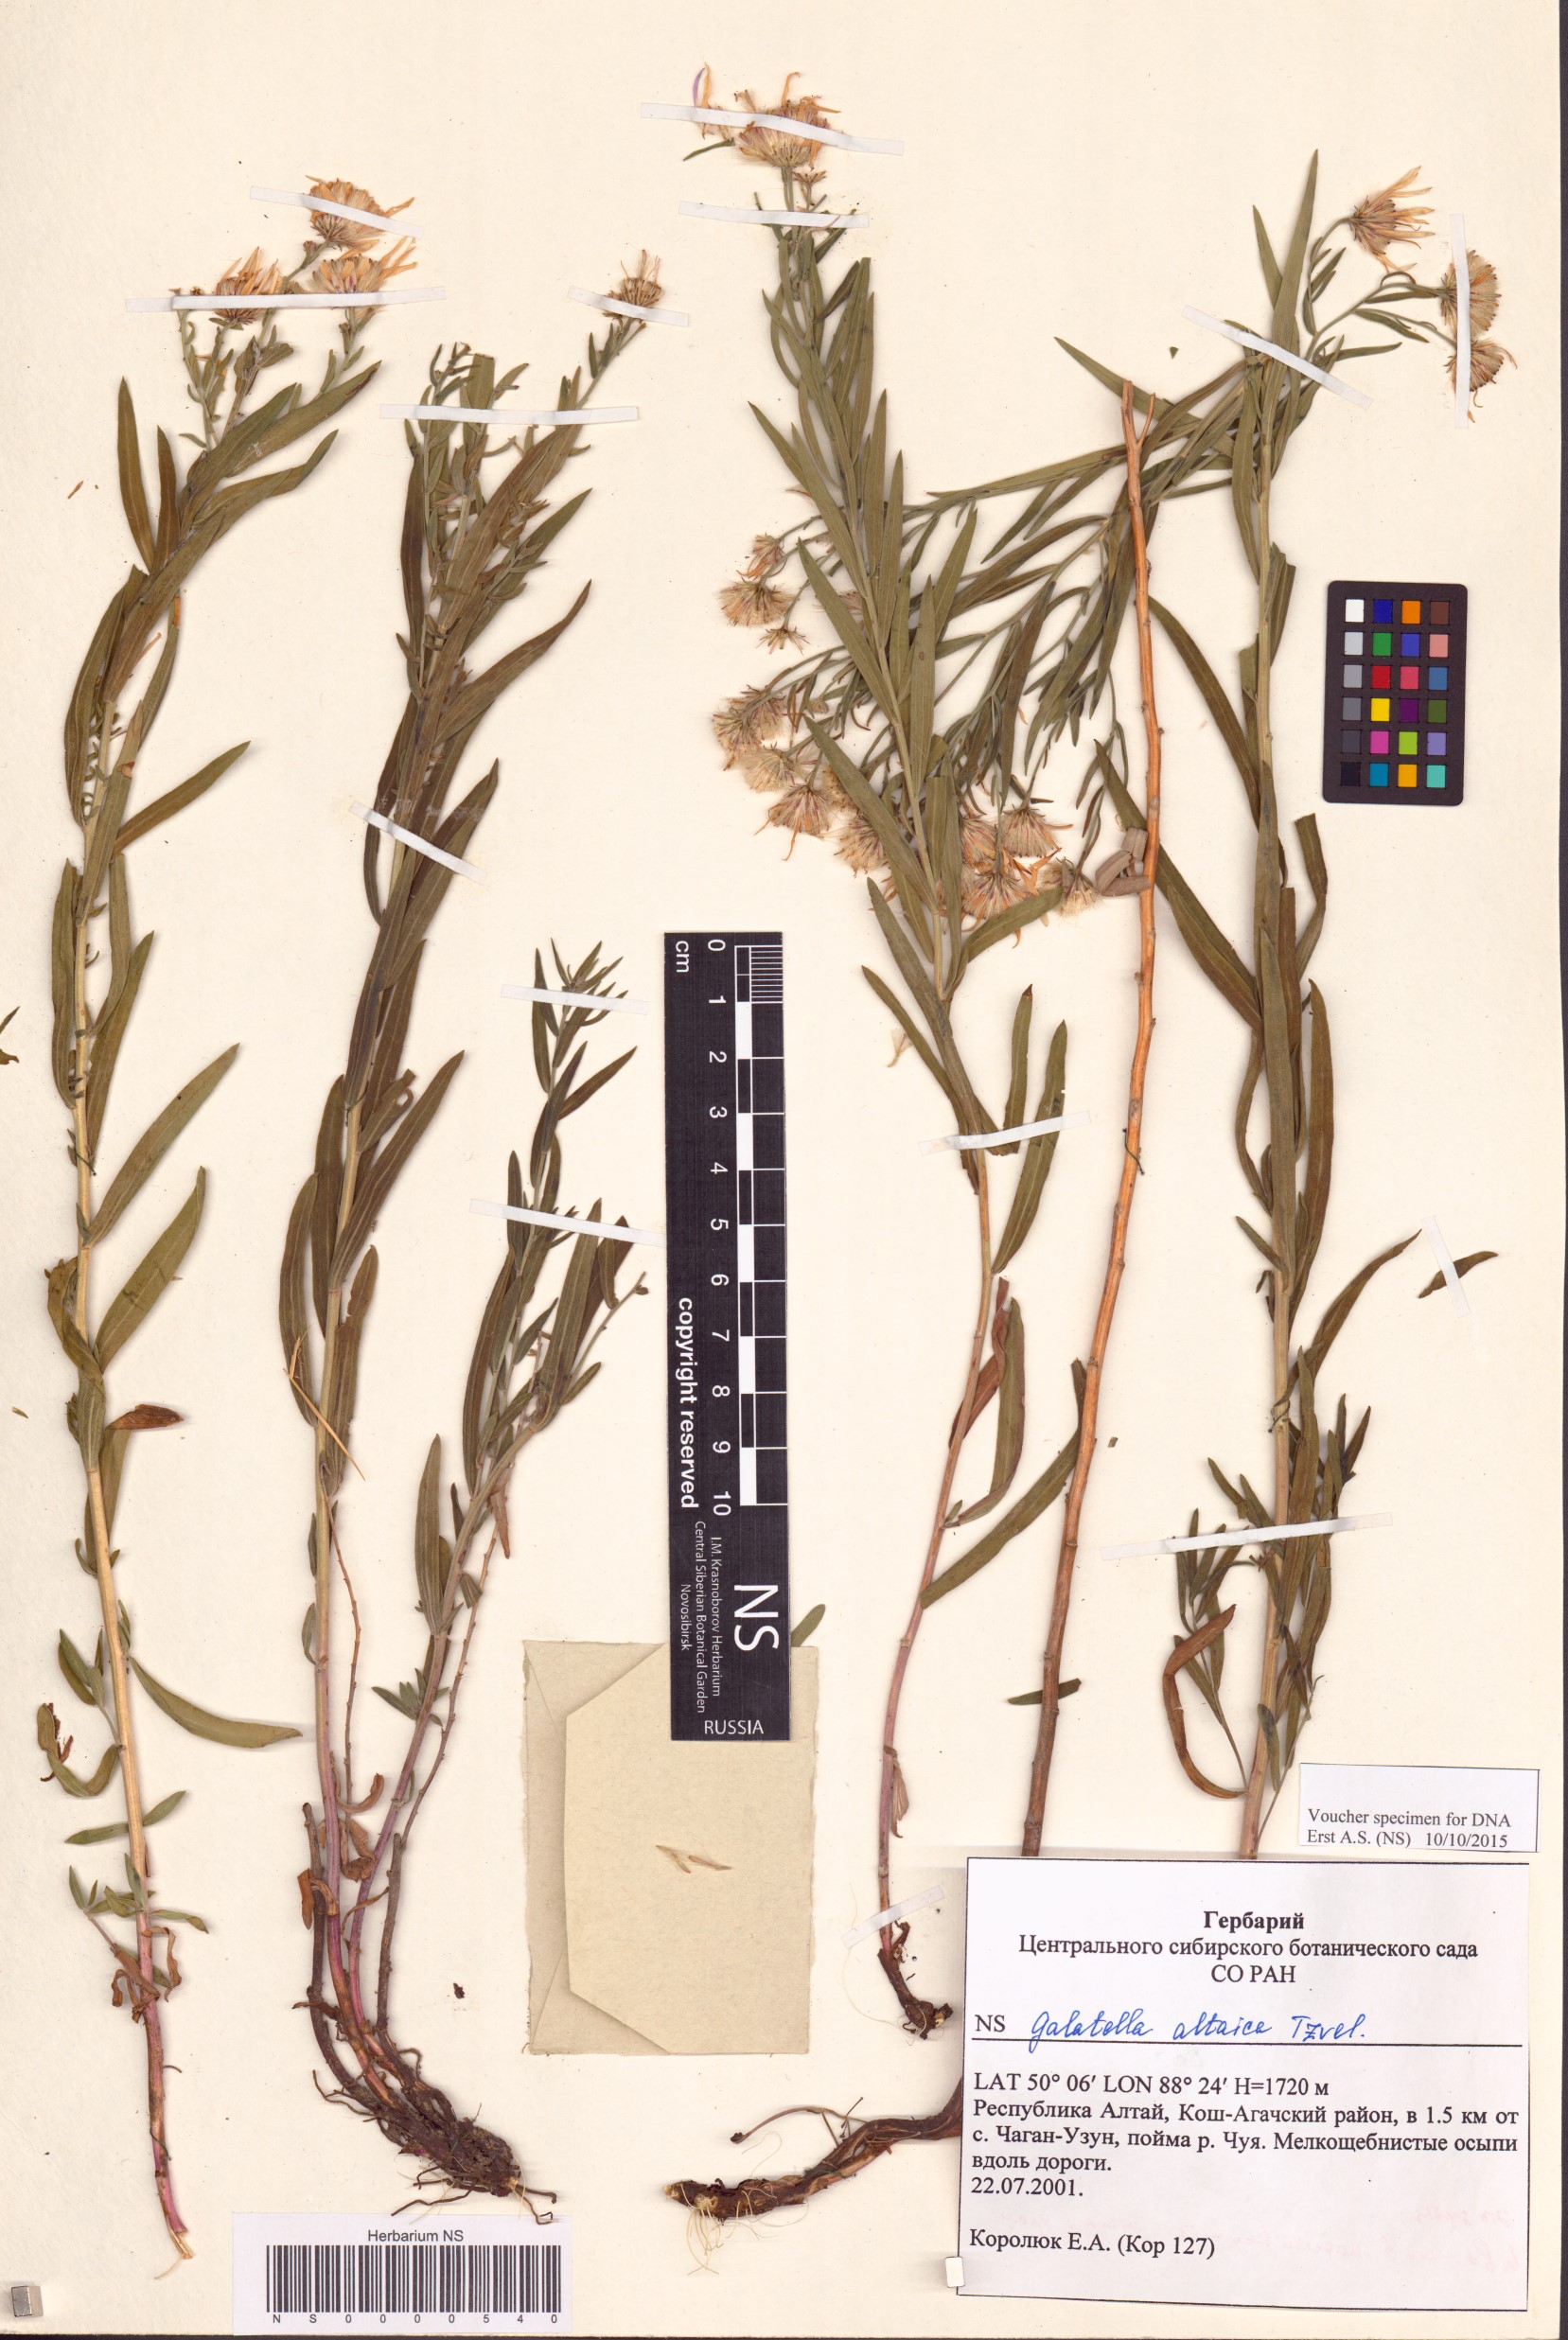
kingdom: Plantae
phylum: Tracheophyta
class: Magnoliopsida
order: Asterales
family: Asteraceae
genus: Galatella
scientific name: Galatella altaica
